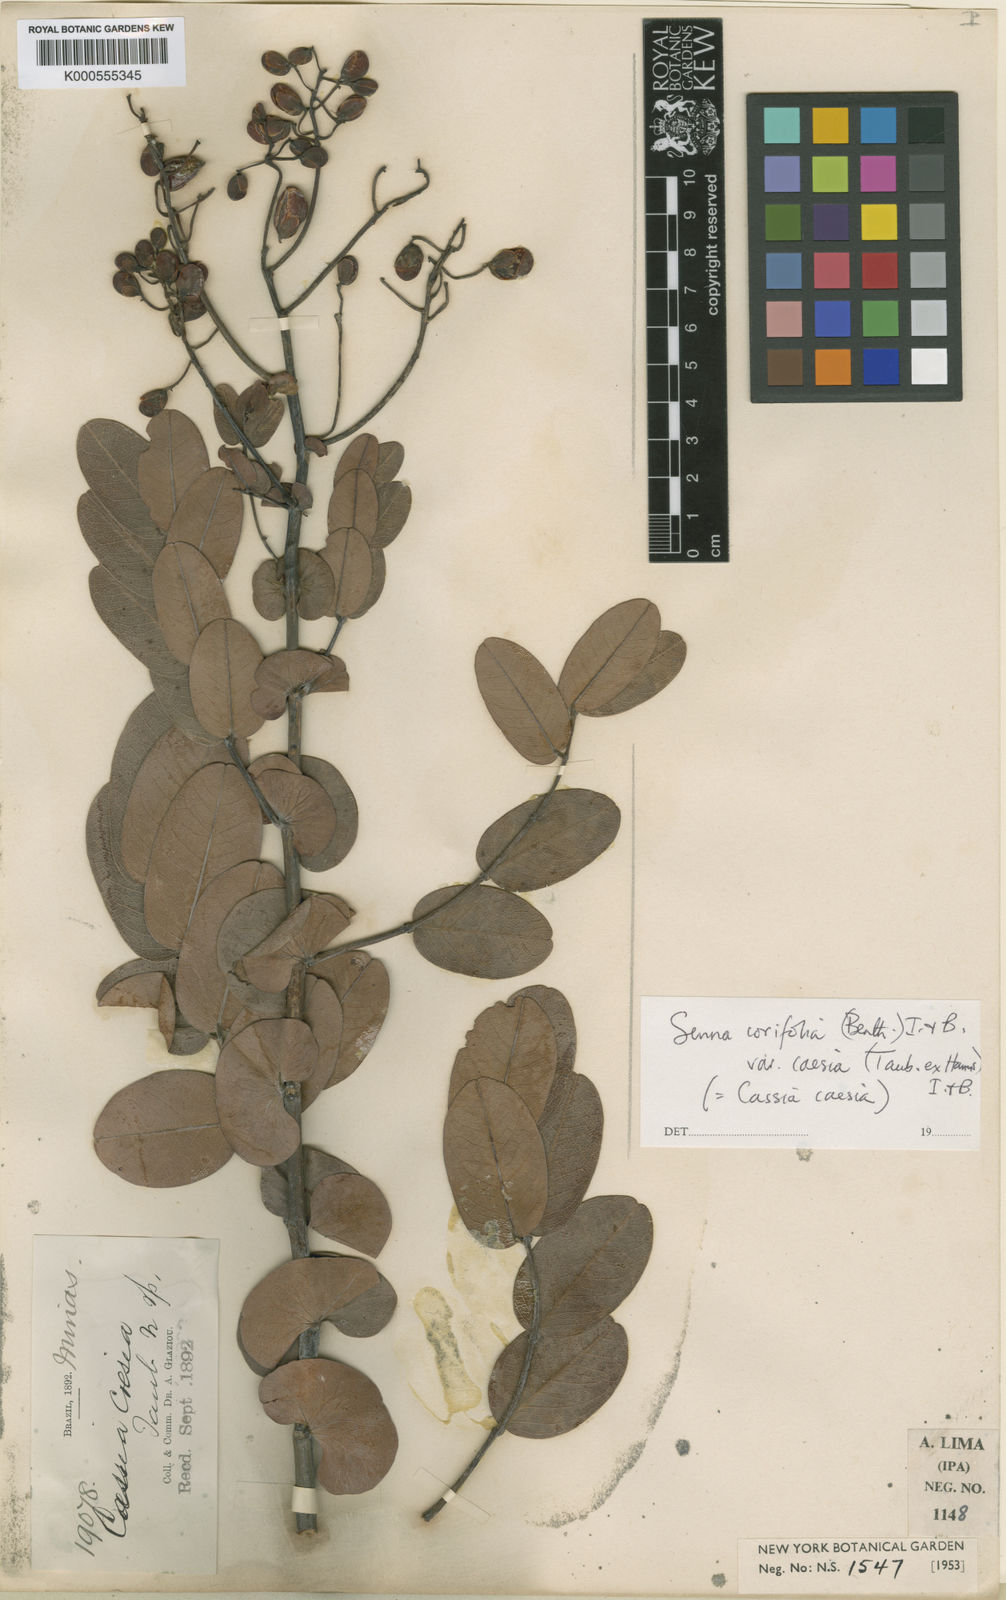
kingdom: Plantae
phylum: Tracheophyta
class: Magnoliopsida
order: Fabales
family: Fabaceae
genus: Senna
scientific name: Senna corifolia
